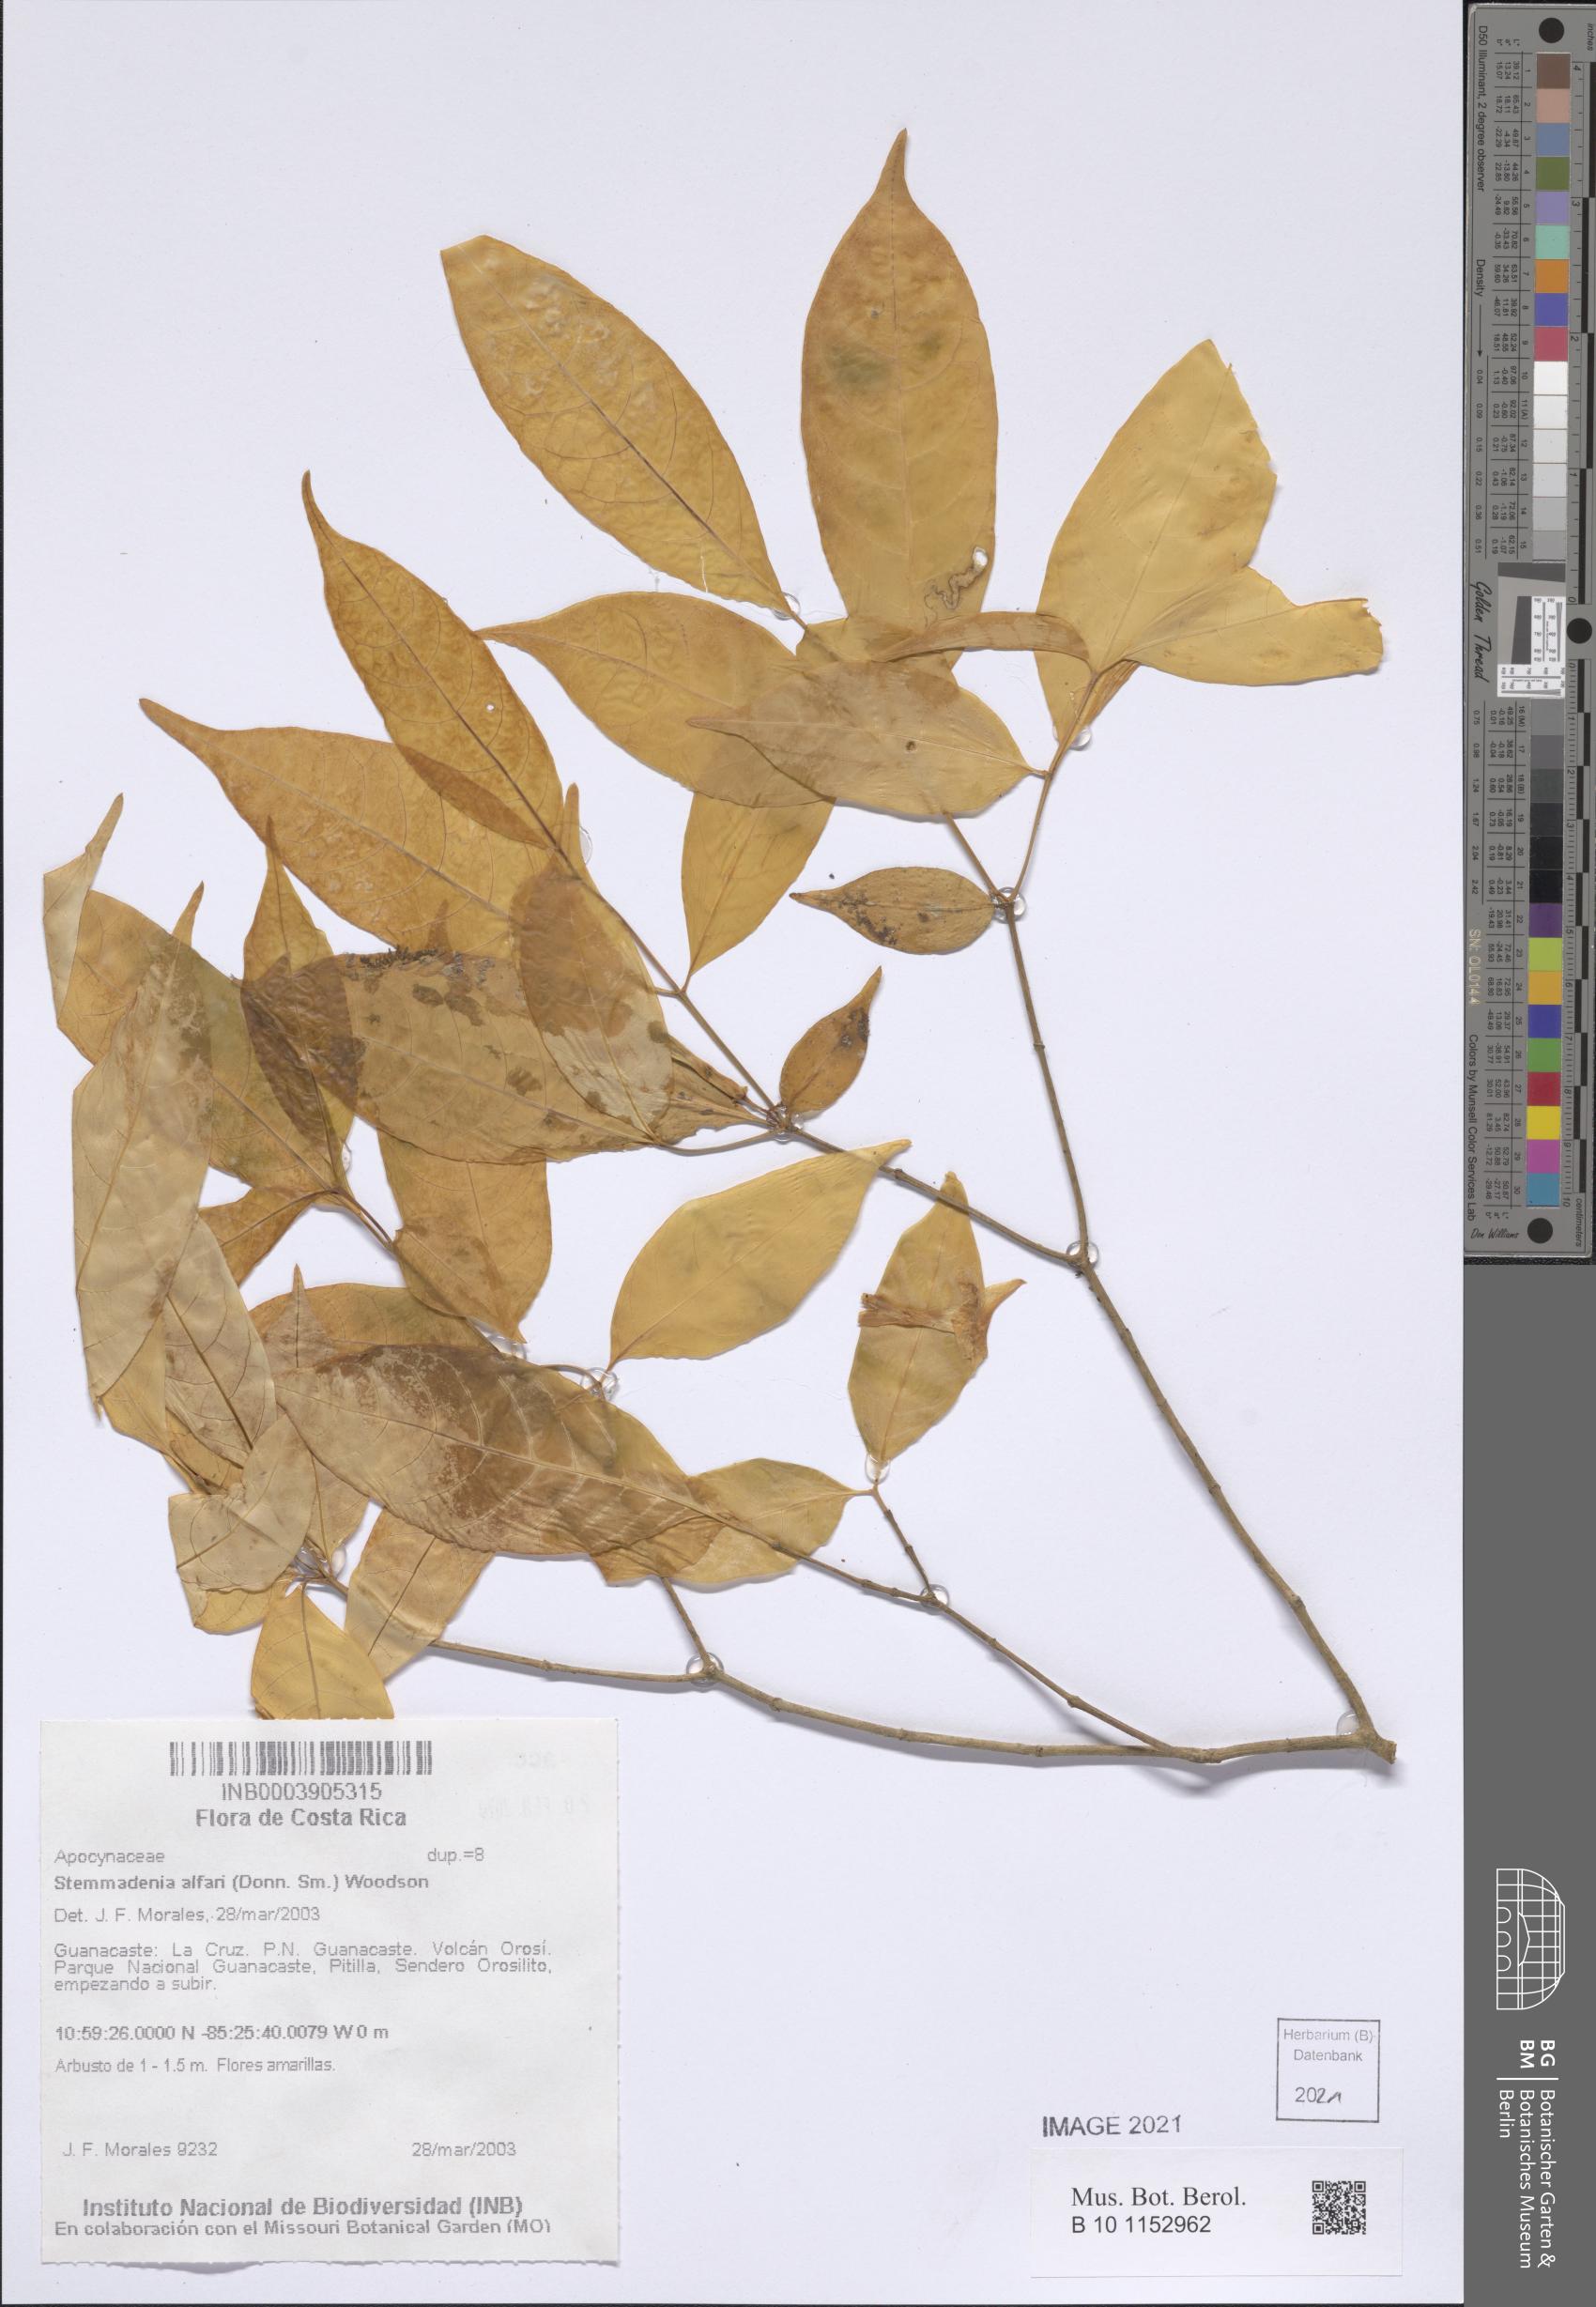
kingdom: Plantae
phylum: Tracheophyta
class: Magnoliopsida
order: Gentianales
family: Apocynaceae
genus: Tabernaemontana
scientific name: Tabernaemontana alfaroi
